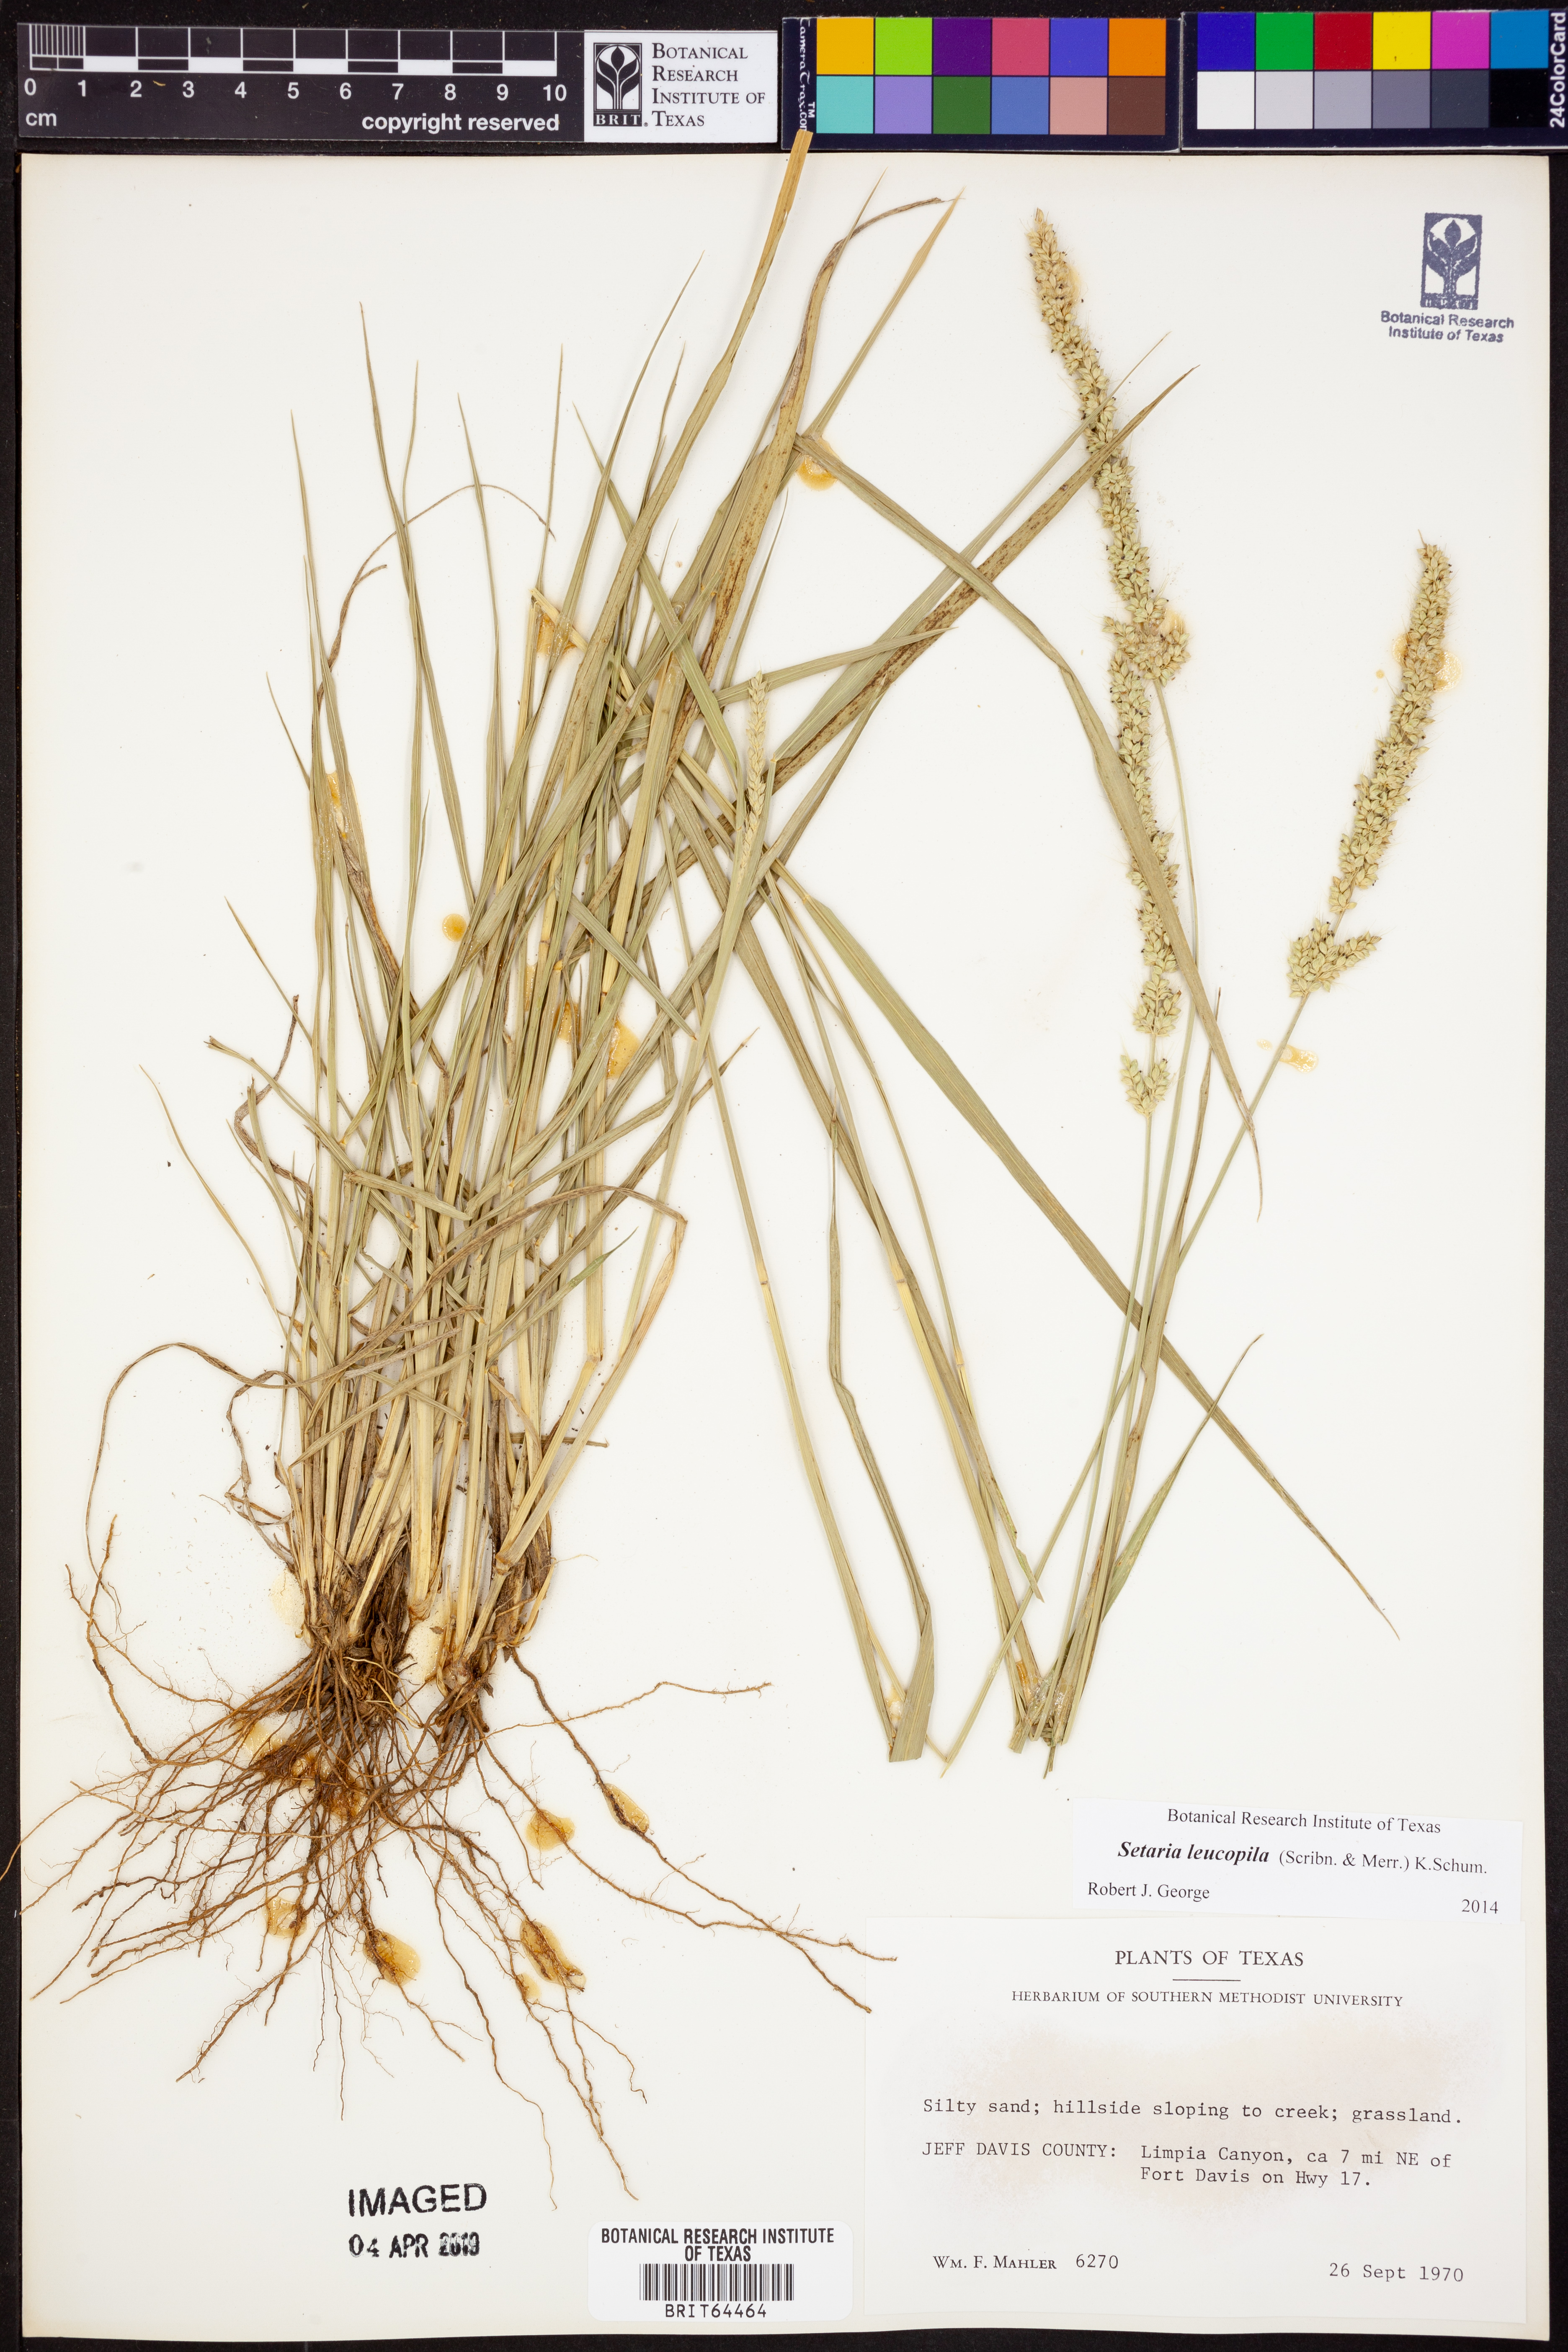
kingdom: Plantae
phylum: Tracheophyta
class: Liliopsida
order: Poales
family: Poaceae
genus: Setaria
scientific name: Setaria leucopila
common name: Plains bristle grass
